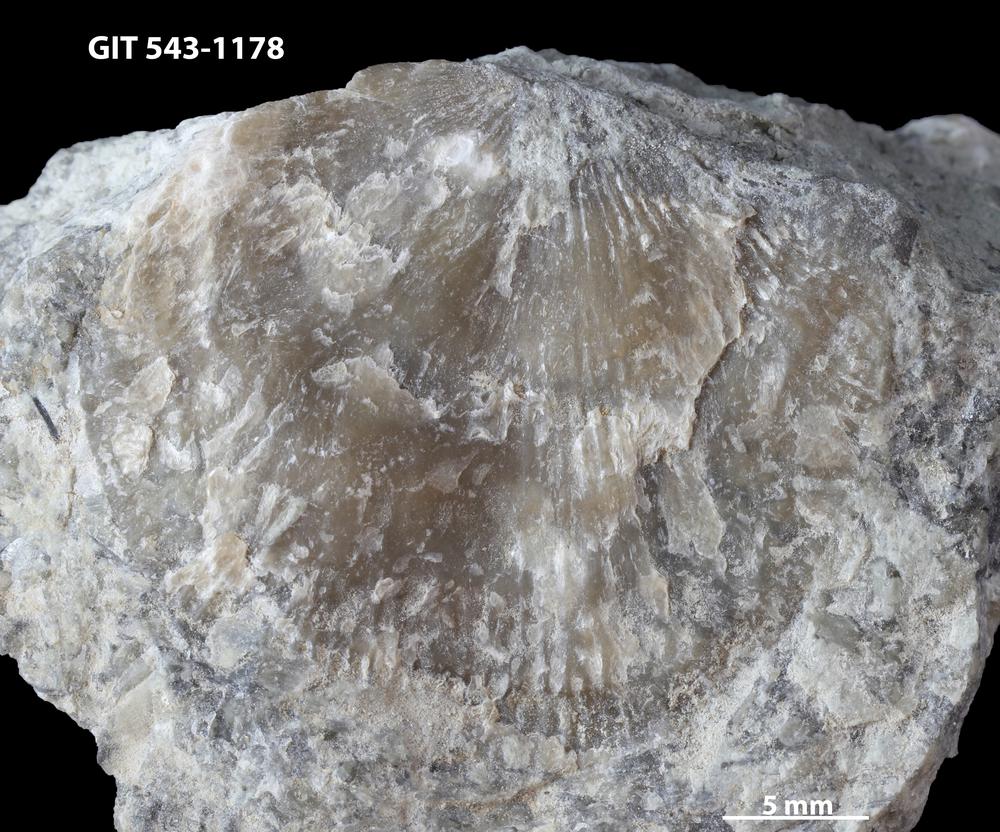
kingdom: Animalia
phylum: Brachiopoda
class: Rhynchonellata
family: Clitambonitidae
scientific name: Clitambonitidae
